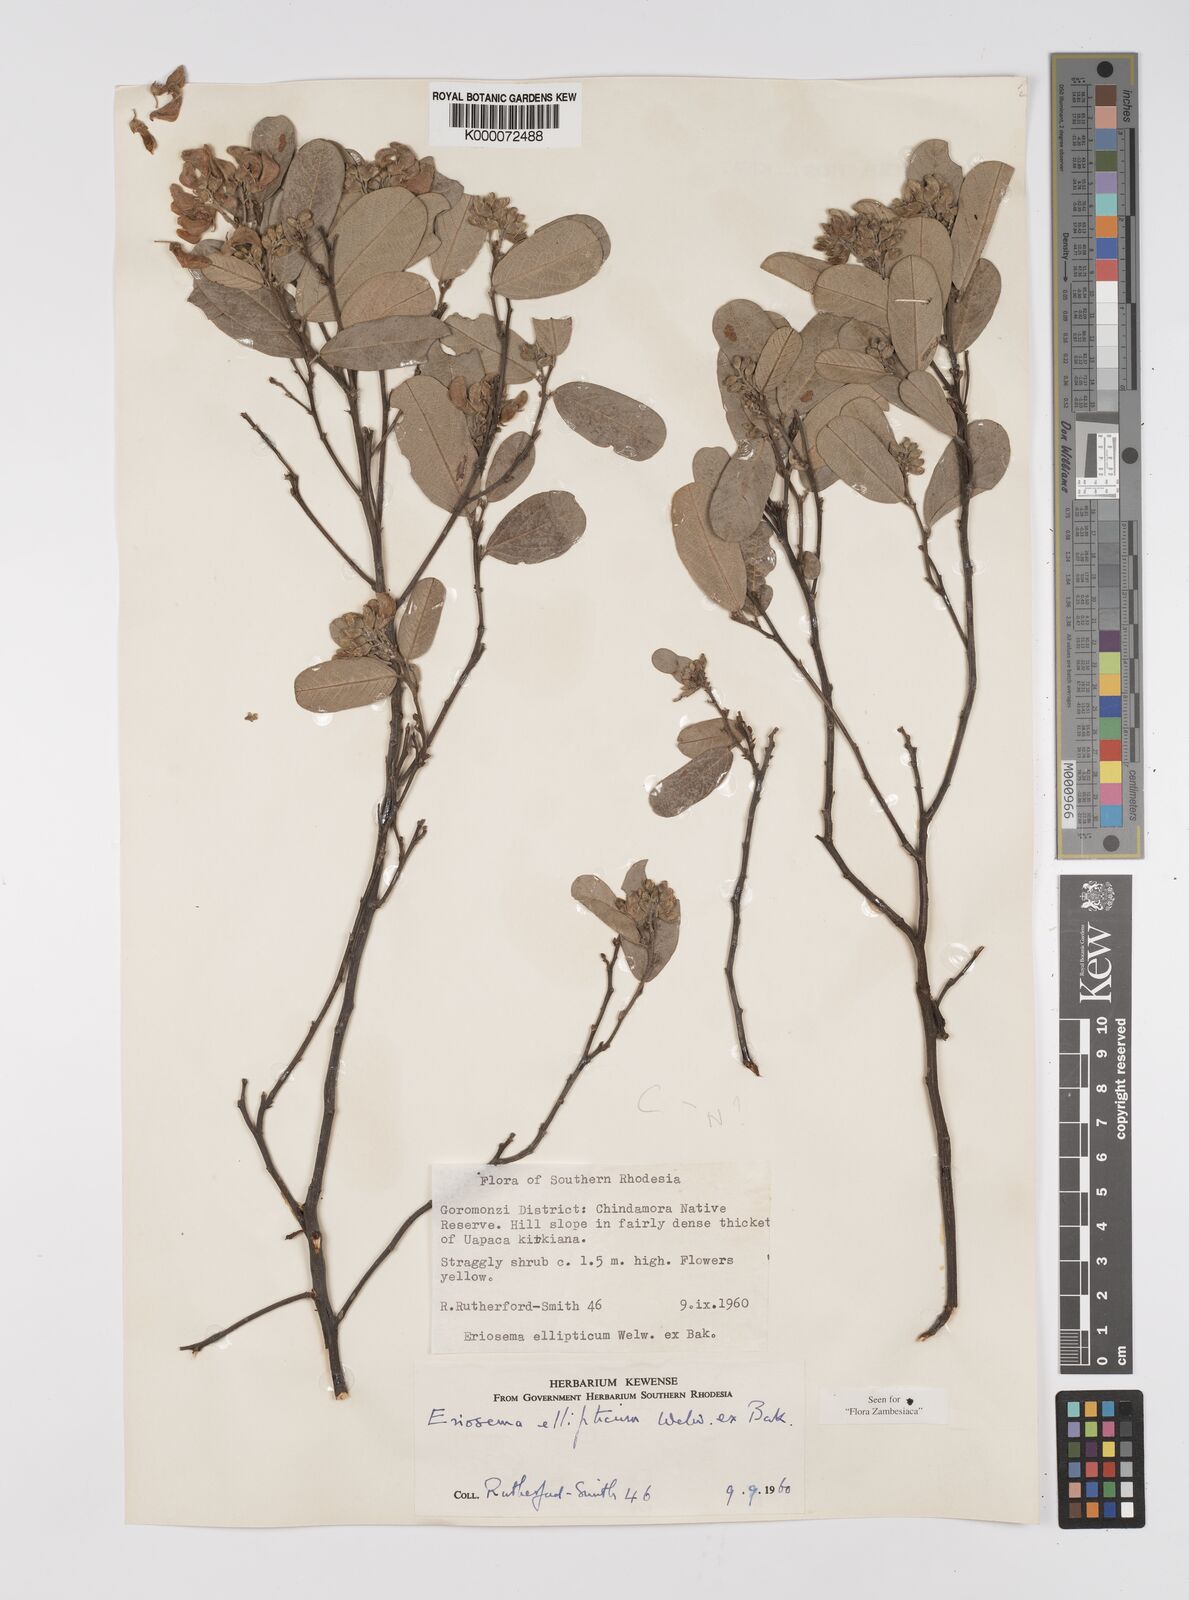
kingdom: Plantae
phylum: Tracheophyta
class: Magnoliopsida
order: Fabales
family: Fabaceae
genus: Eriosema
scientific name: Eriosema ellipticum
